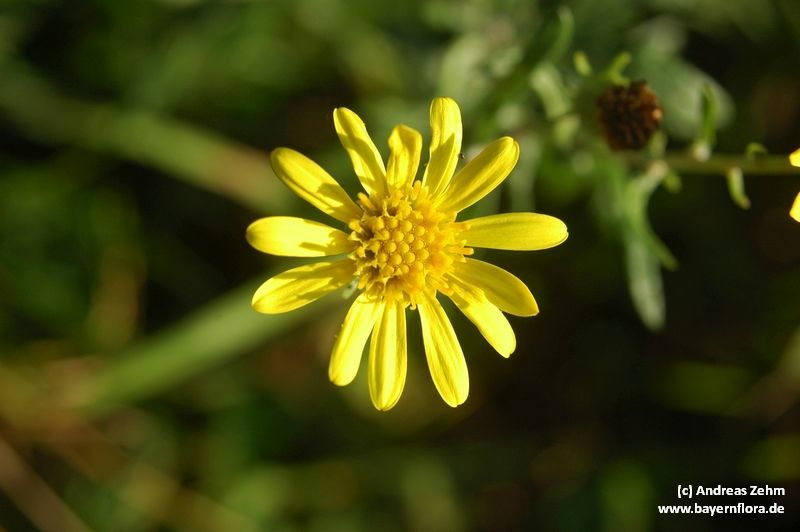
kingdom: Plantae
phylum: Tracheophyta
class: Magnoliopsida
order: Asterales
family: Asteraceae
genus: Jacobaea
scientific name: Jacobaea erucifolia
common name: Hoary ragwort
